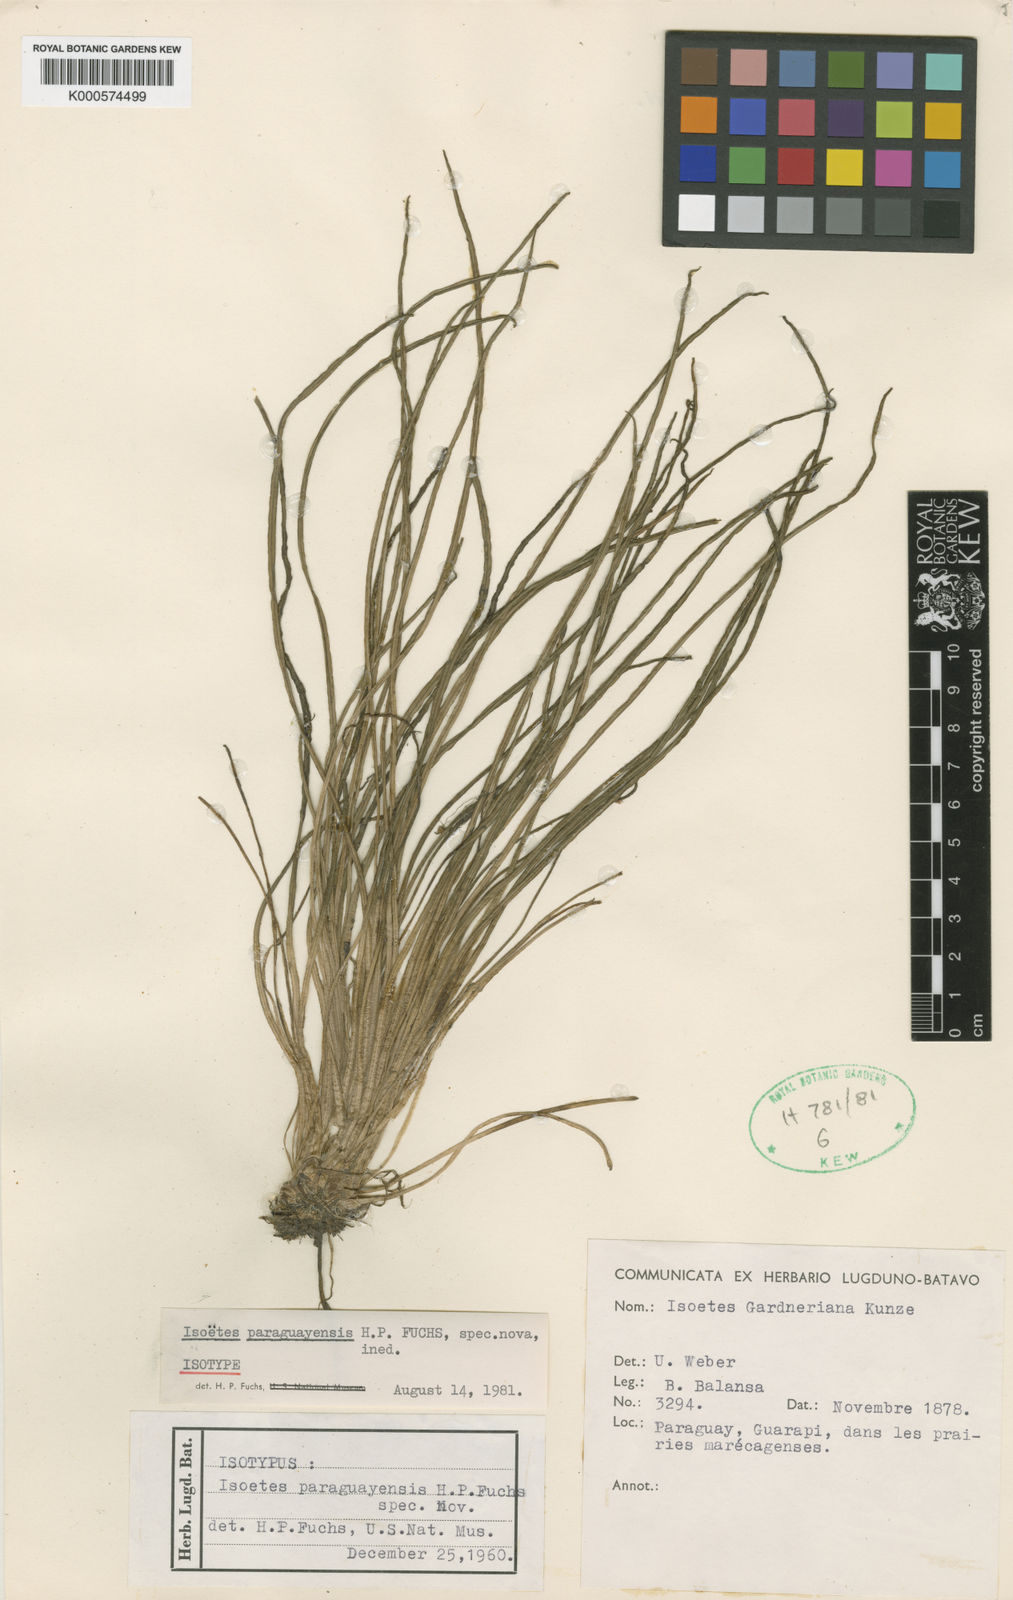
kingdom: Plantae
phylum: Tracheophyta
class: Lycopodiopsida
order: Isoetales
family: Isoetaceae
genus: Isoetes
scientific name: Isoetes gardneriana
